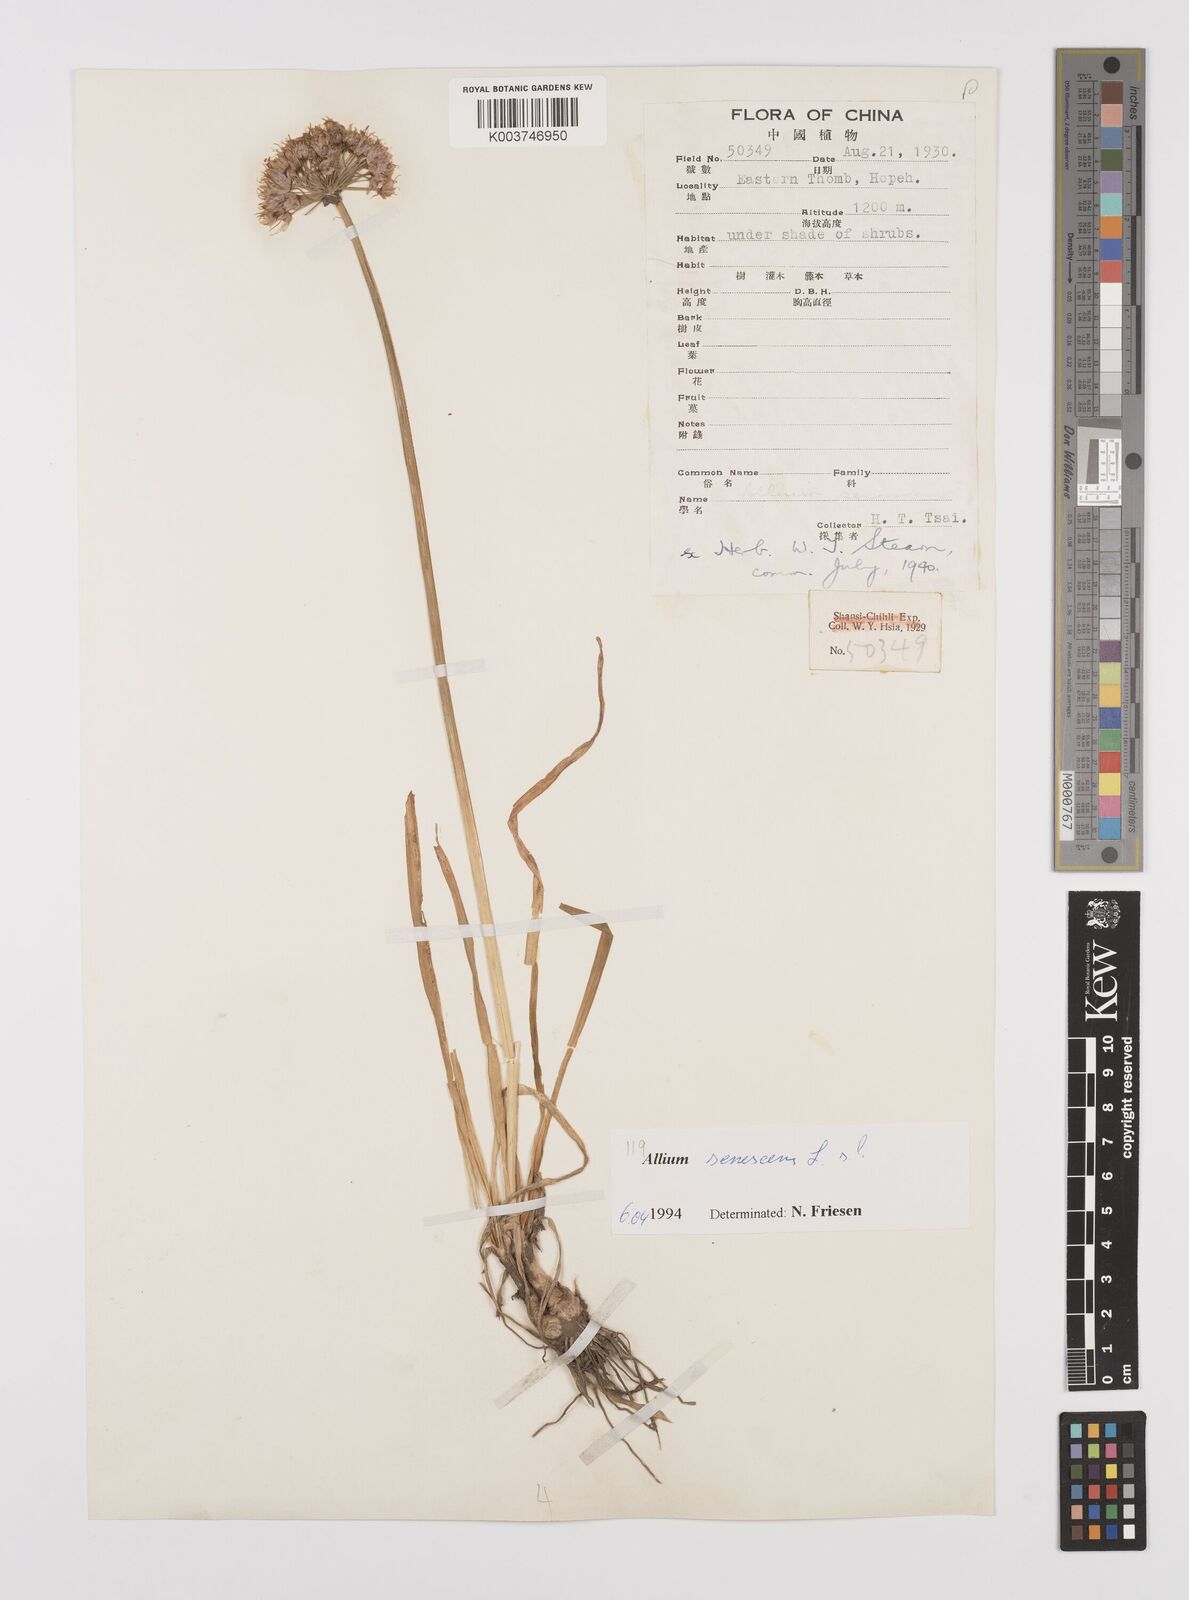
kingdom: Plantae
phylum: Tracheophyta
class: Liliopsida
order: Asparagales
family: Amaryllidaceae
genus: Allium
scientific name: Allium
